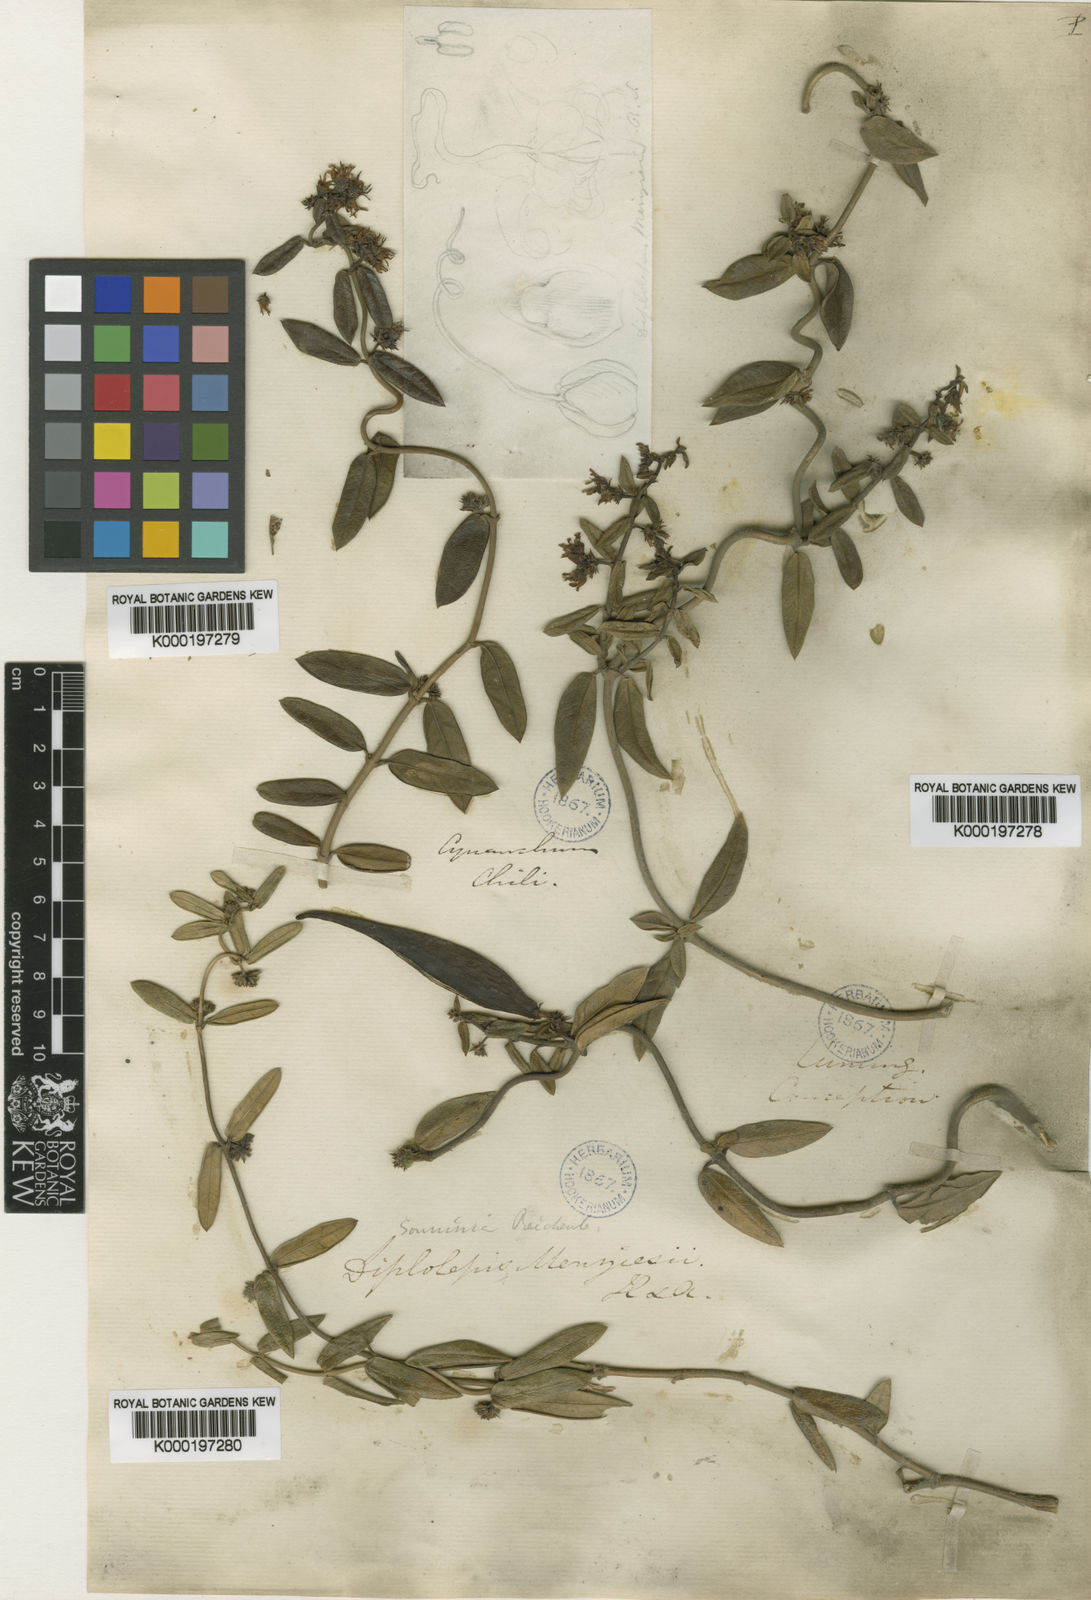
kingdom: Plantae
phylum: Tracheophyta
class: Magnoliopsida
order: Gentianales
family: Apocynaceae
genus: Diplolepis
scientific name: Diplolepis menziesii
